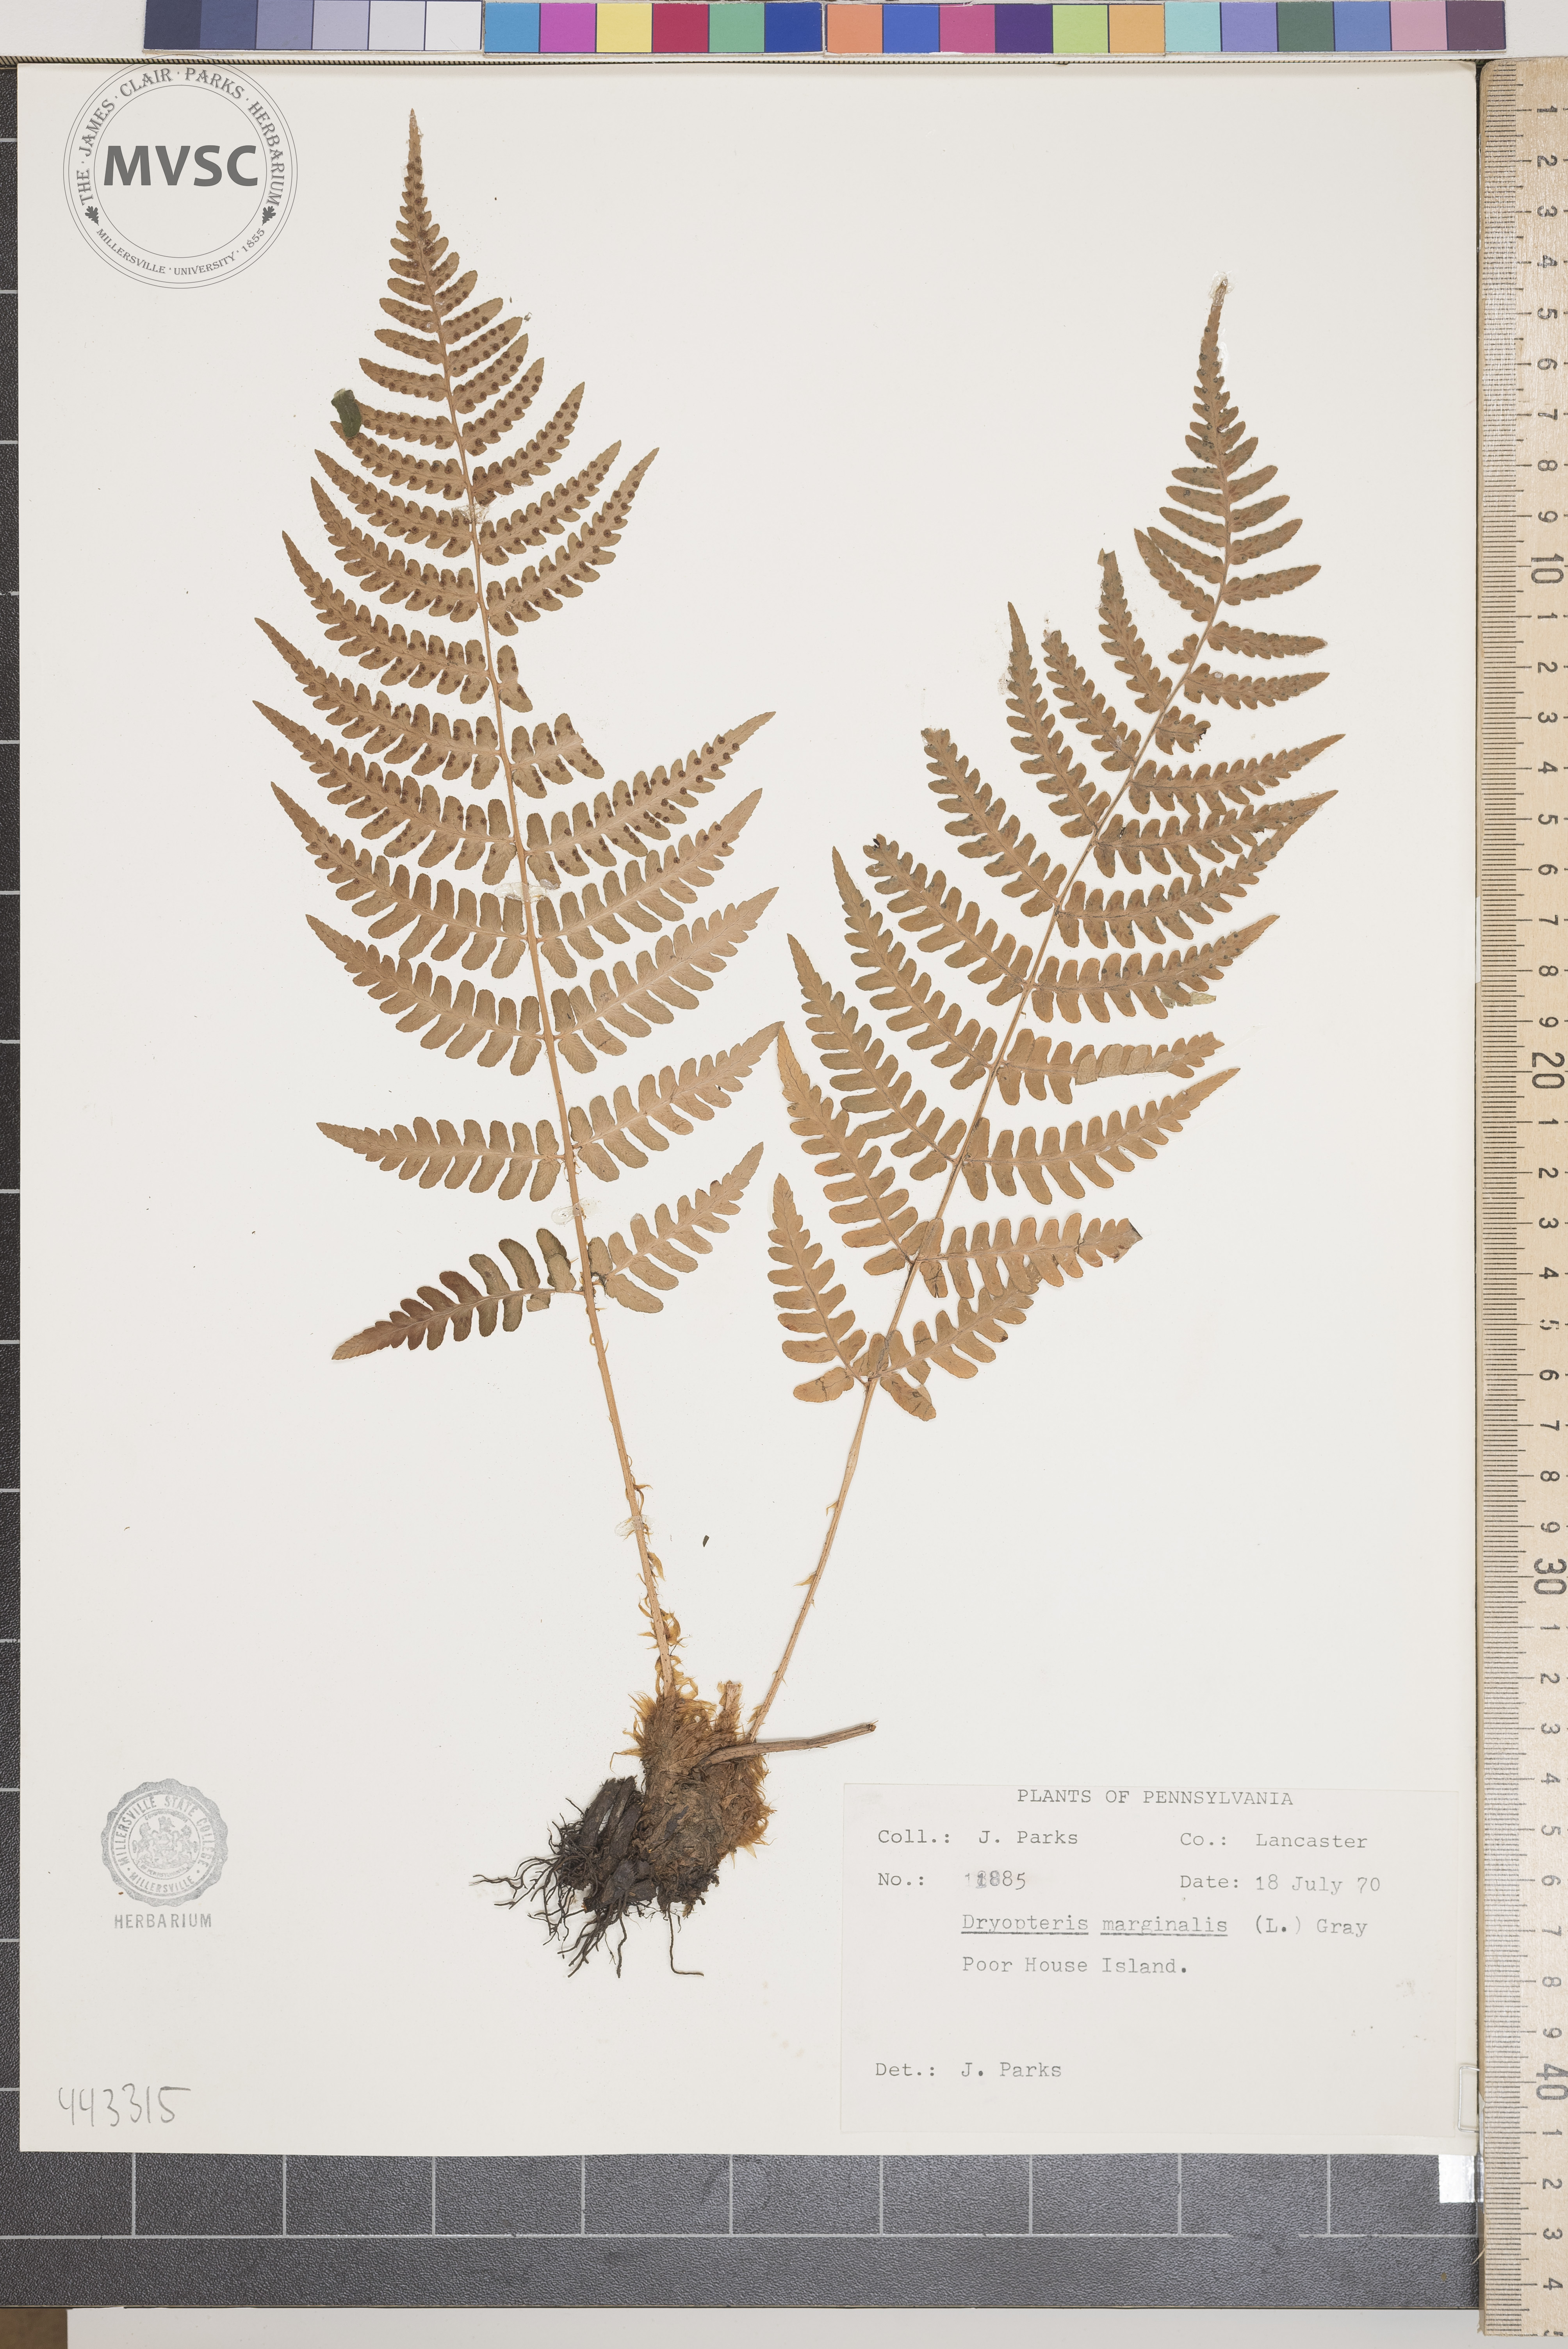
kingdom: Plantae
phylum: Tracheophyta
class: Polypodiopsida
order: Polypodiales
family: Dryopteridaceae
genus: Dryopteris
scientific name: Dryopteris marginalis
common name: Marginal wood fern
